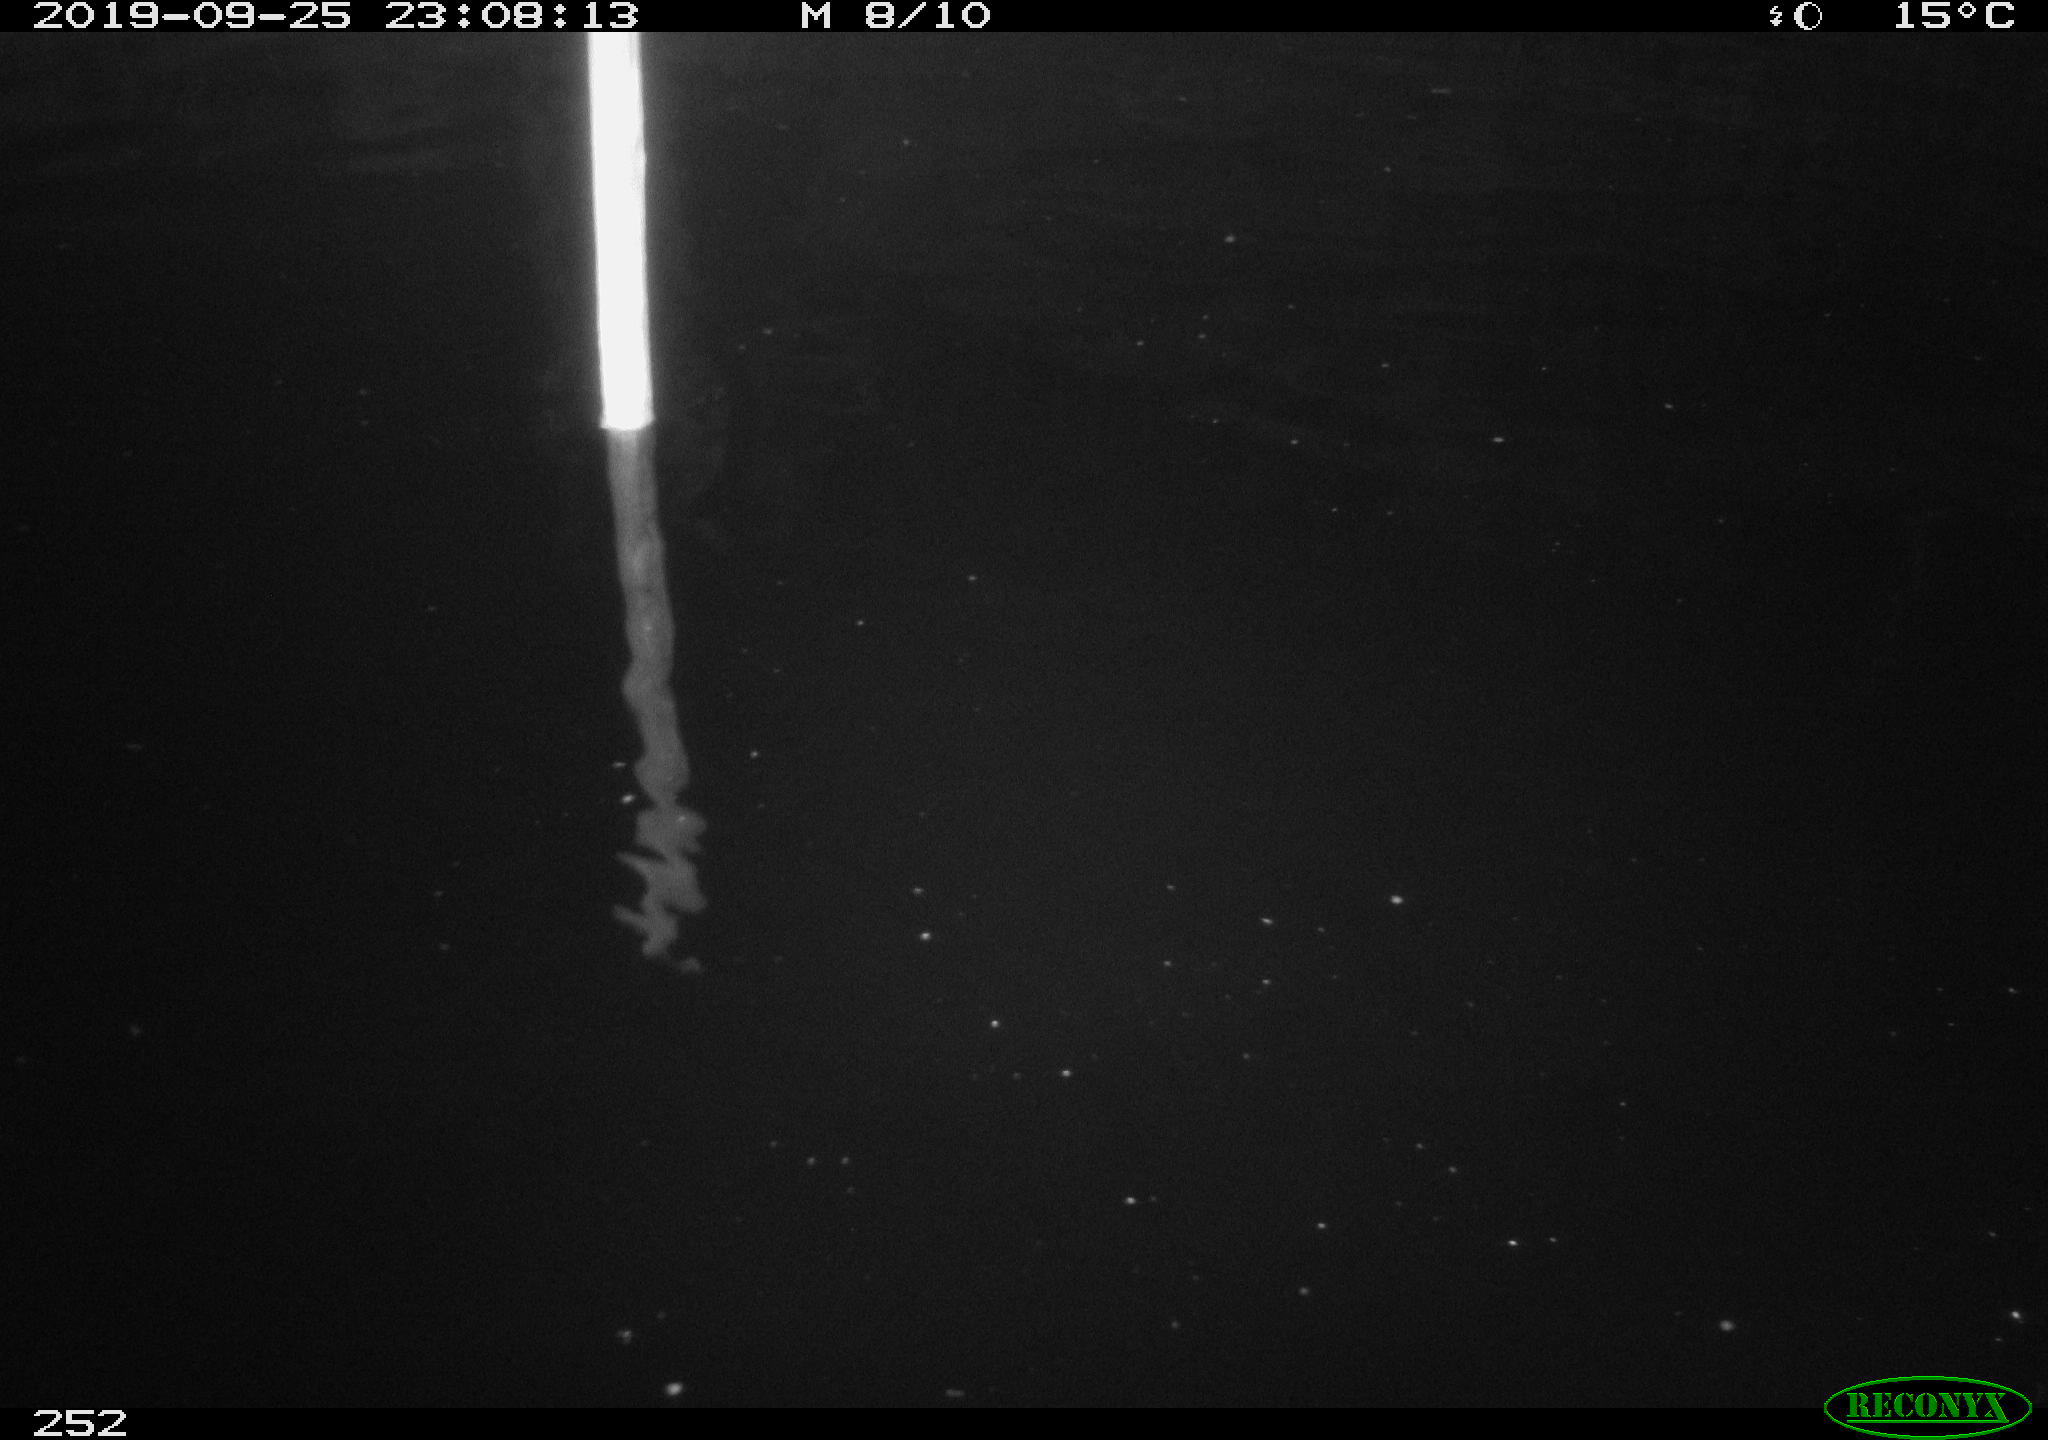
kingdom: Animalia
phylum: Chordata
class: Aves
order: Anseriformes
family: Anatidae
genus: Anas
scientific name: Anas platyrhynchos
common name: Mallard
